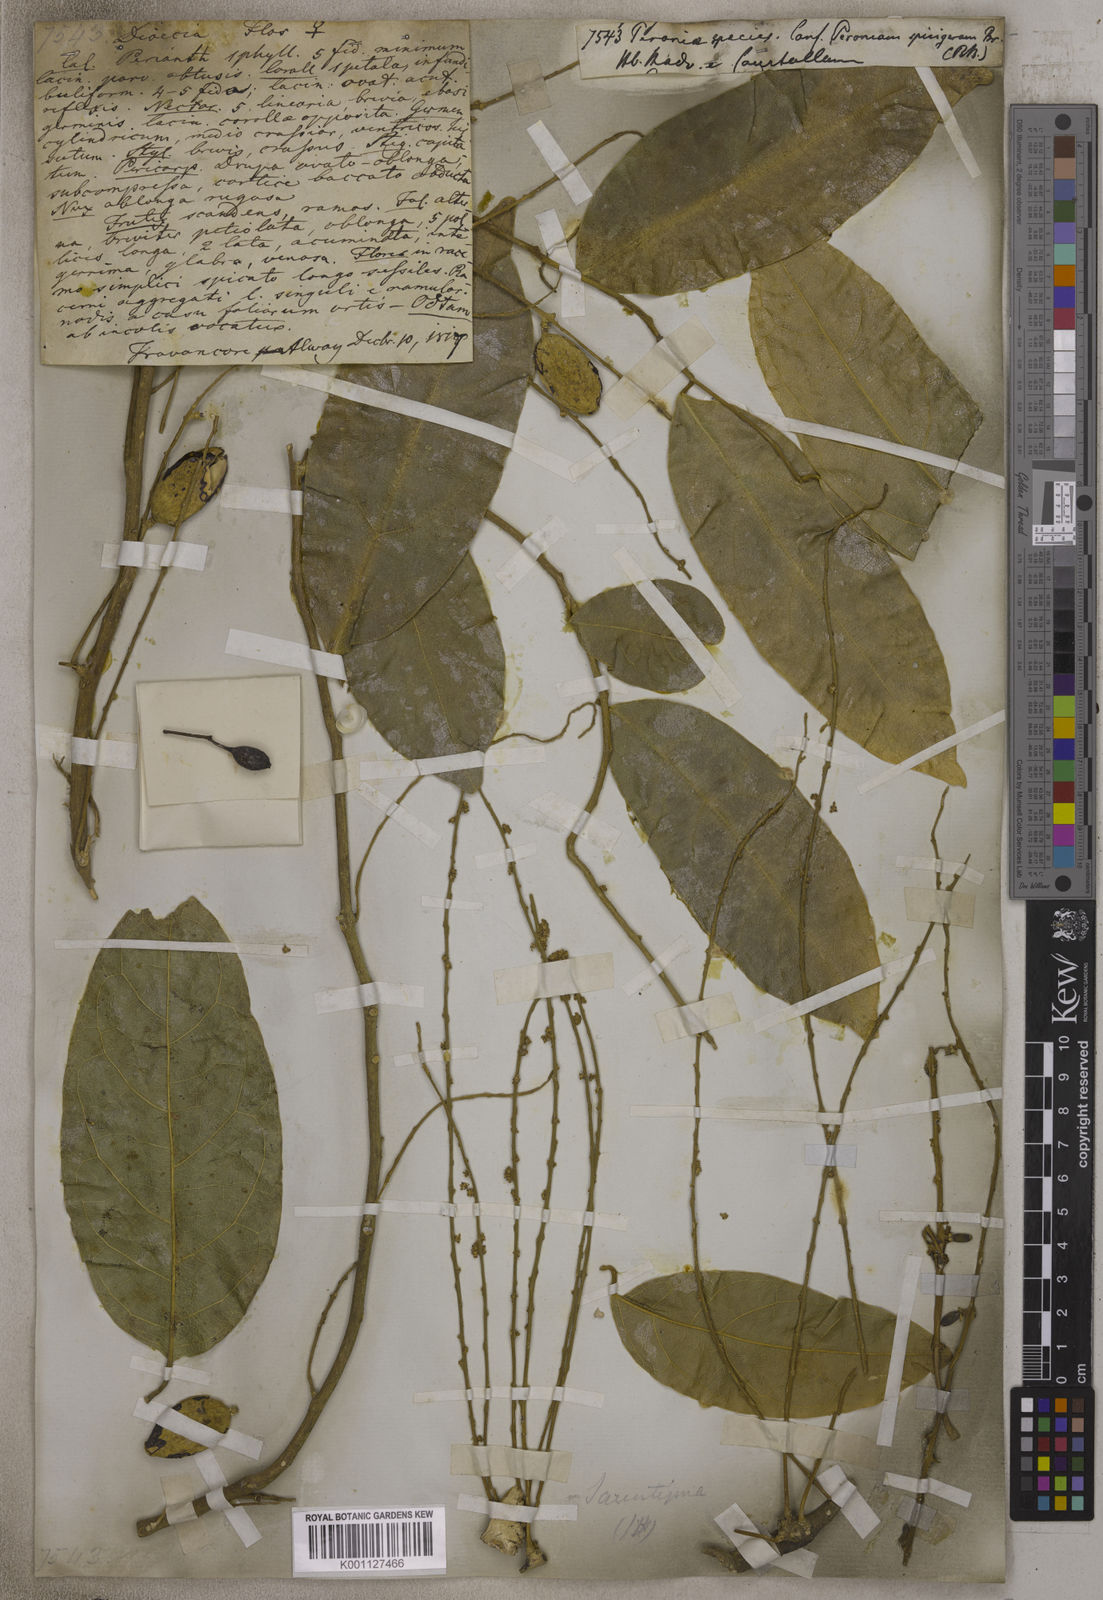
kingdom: Plantae
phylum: Tracheophyta
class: Liliopsida
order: Zingiberales
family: Marantaceae
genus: Thalia
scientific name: Thalia
